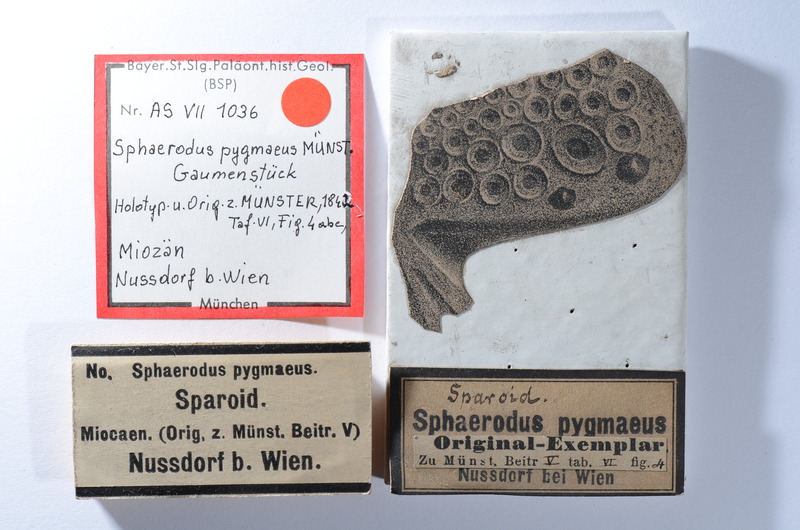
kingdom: Animalia
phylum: Chordata
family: Pycnodontidae
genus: Sphaerodus
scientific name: Sphaerodus
